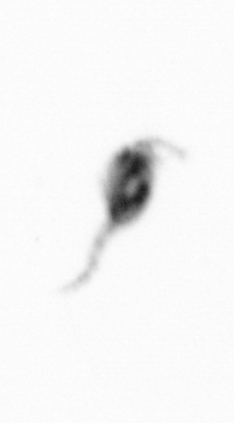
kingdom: Animalia
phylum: Arthropoda
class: Copepoda
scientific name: Copepoda
